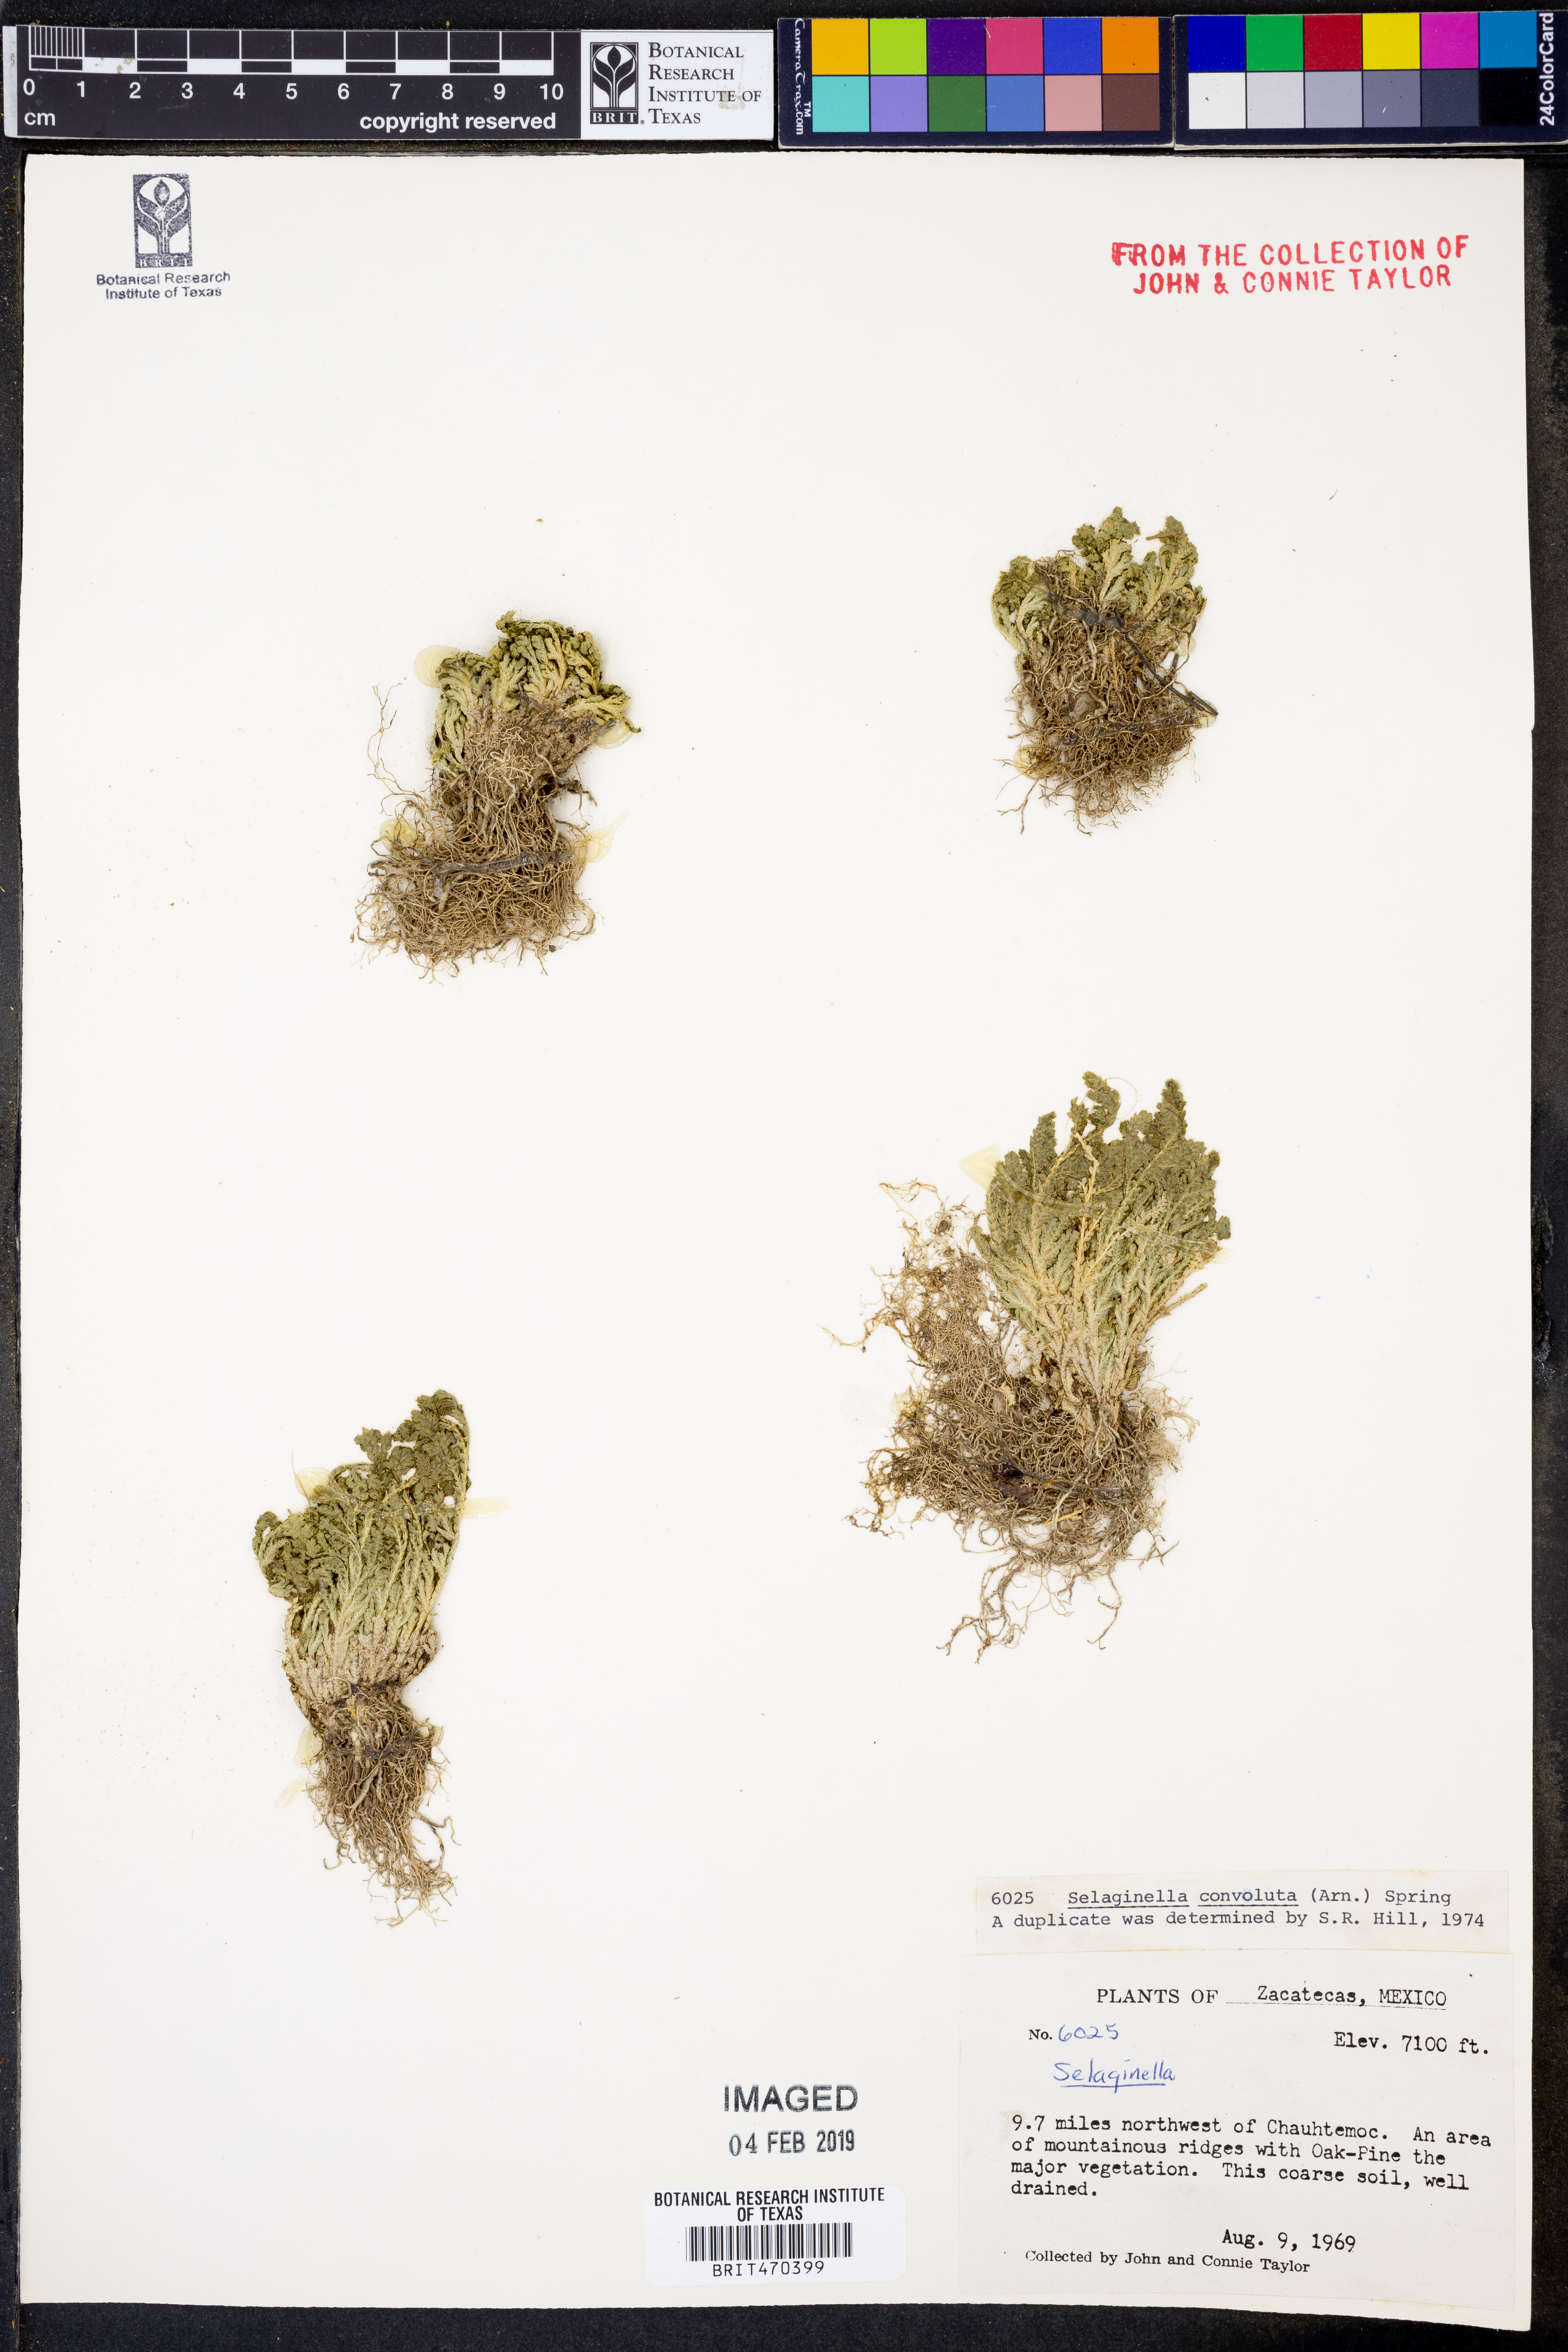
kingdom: Plantae
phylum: Tracheophyta
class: Lycopodiopsida
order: Selaginellales
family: Selaginellaceae
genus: Selaginella
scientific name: Selaginella convoluta
